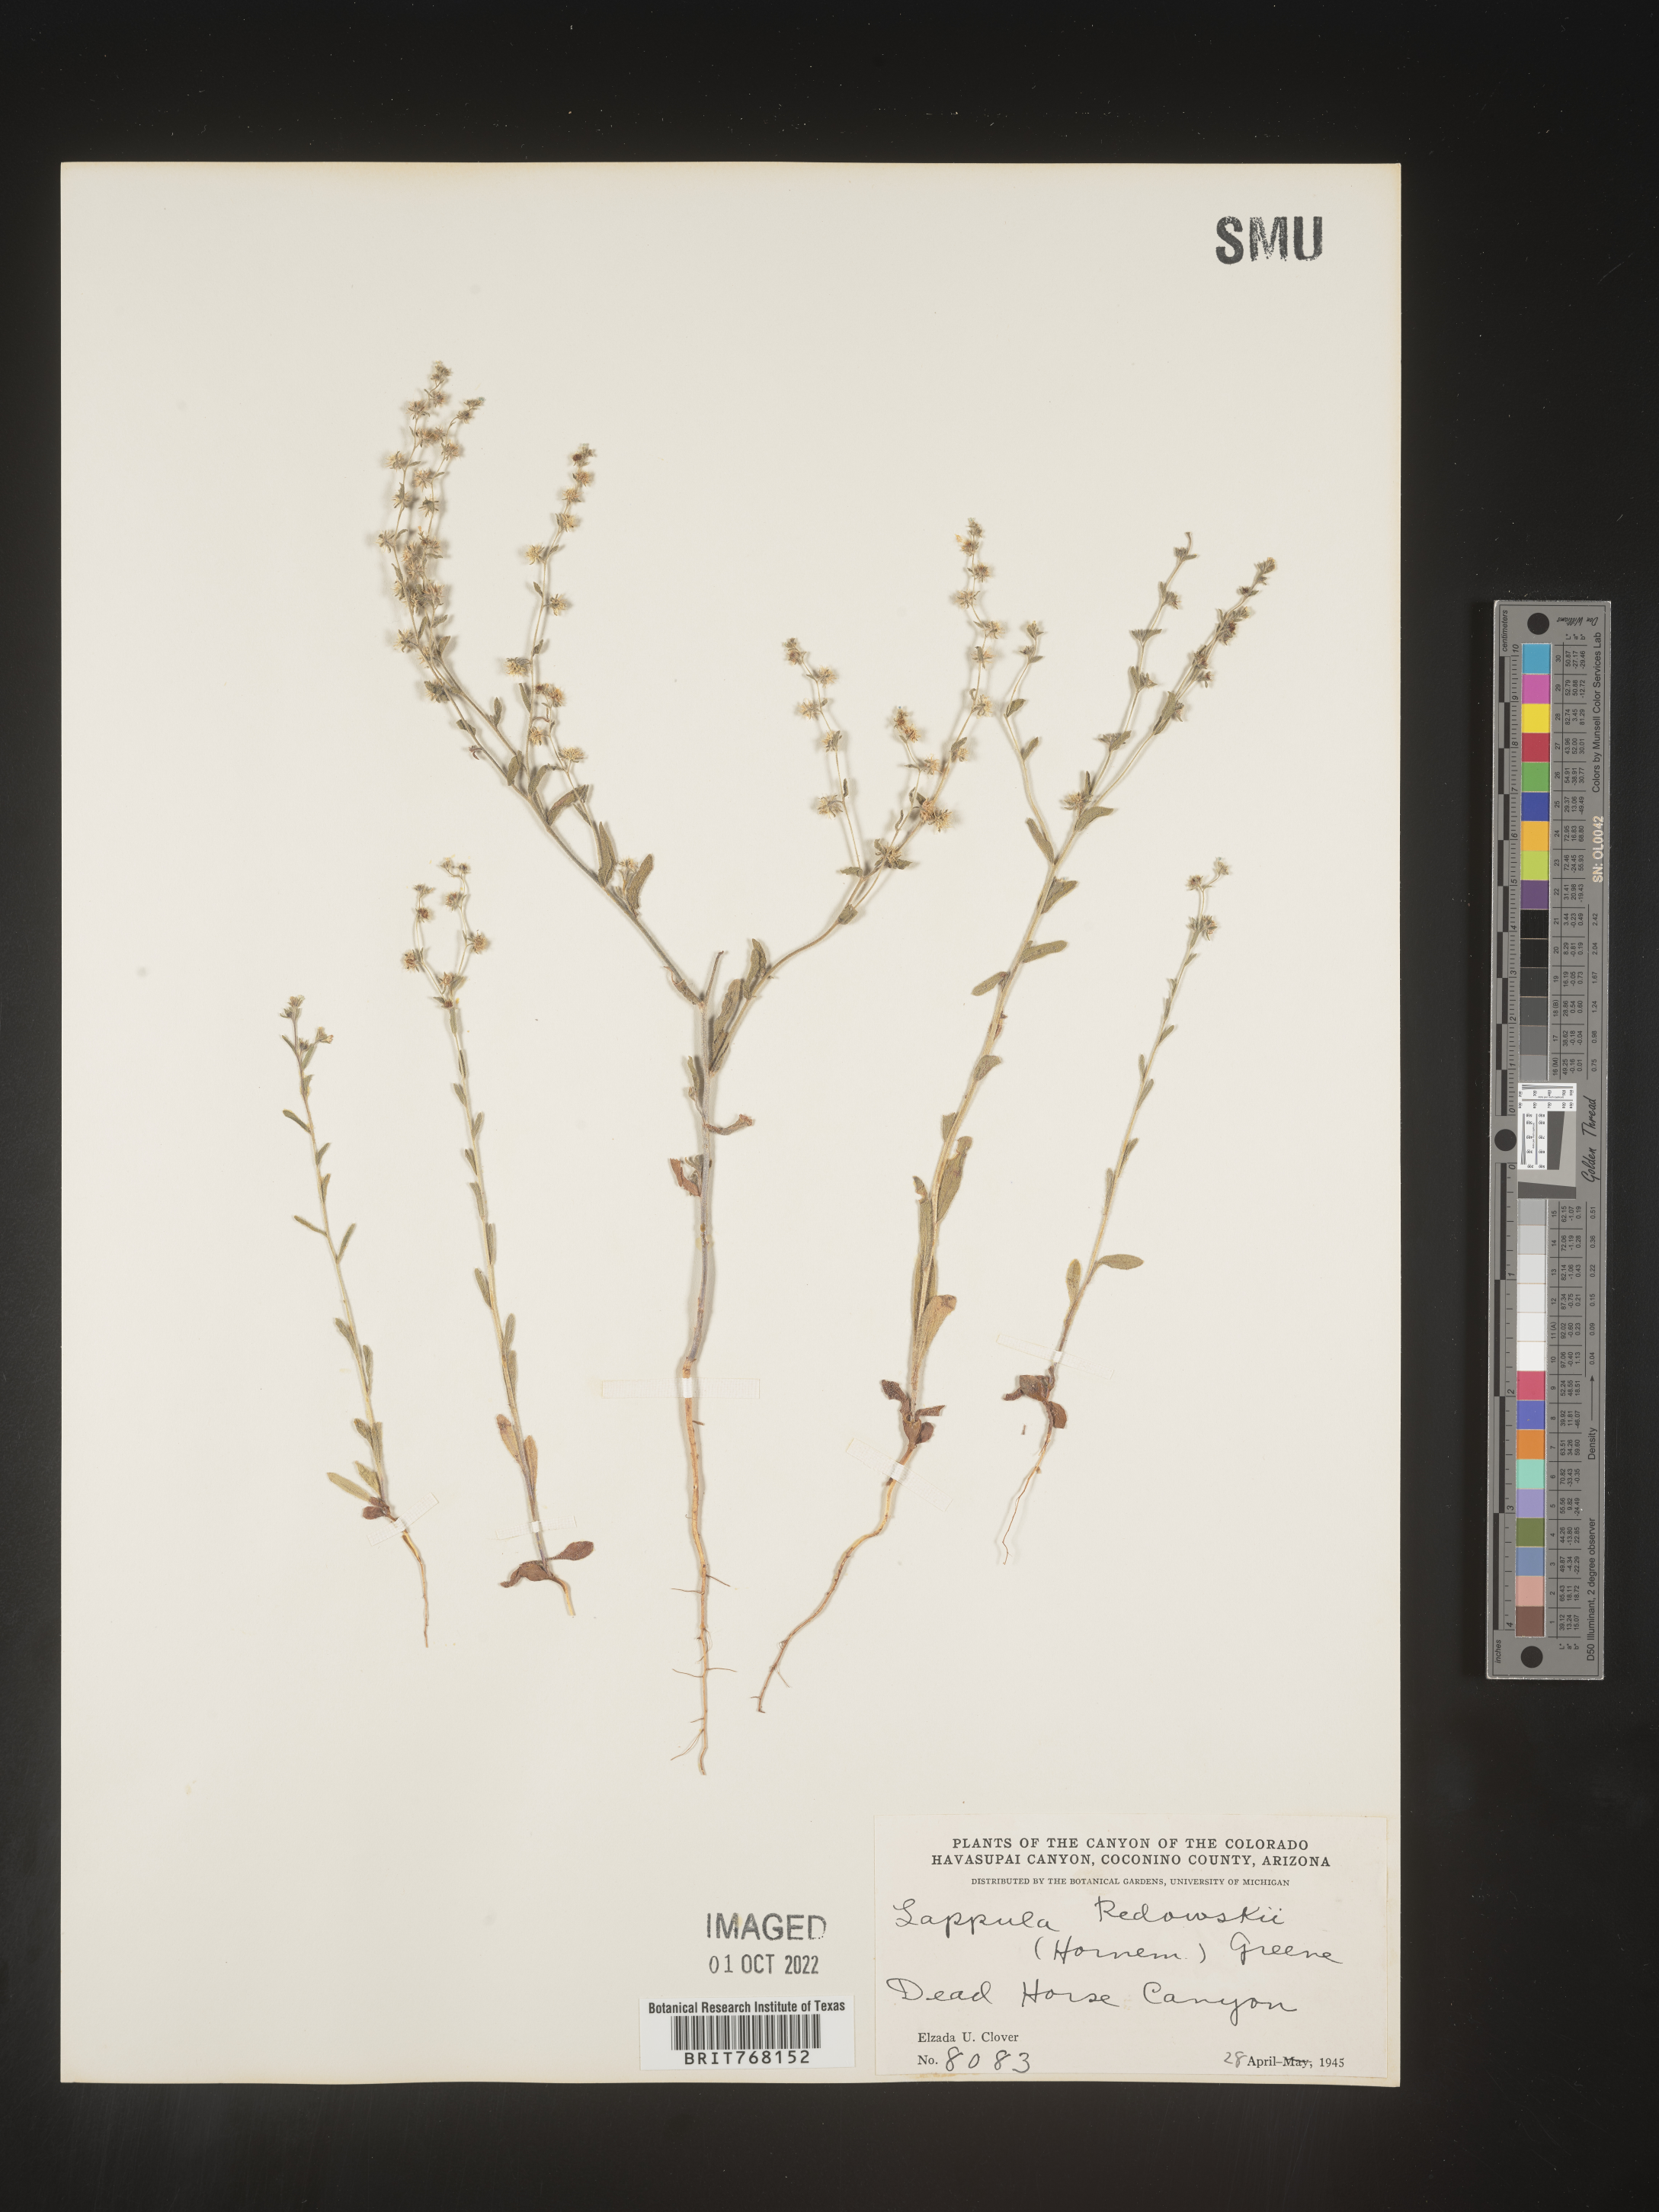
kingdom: Plantae
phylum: Tracheophyta
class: Magnoliopsida
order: Boraginales
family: Boraginaceae
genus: Lappula
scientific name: Lappula redowskii
